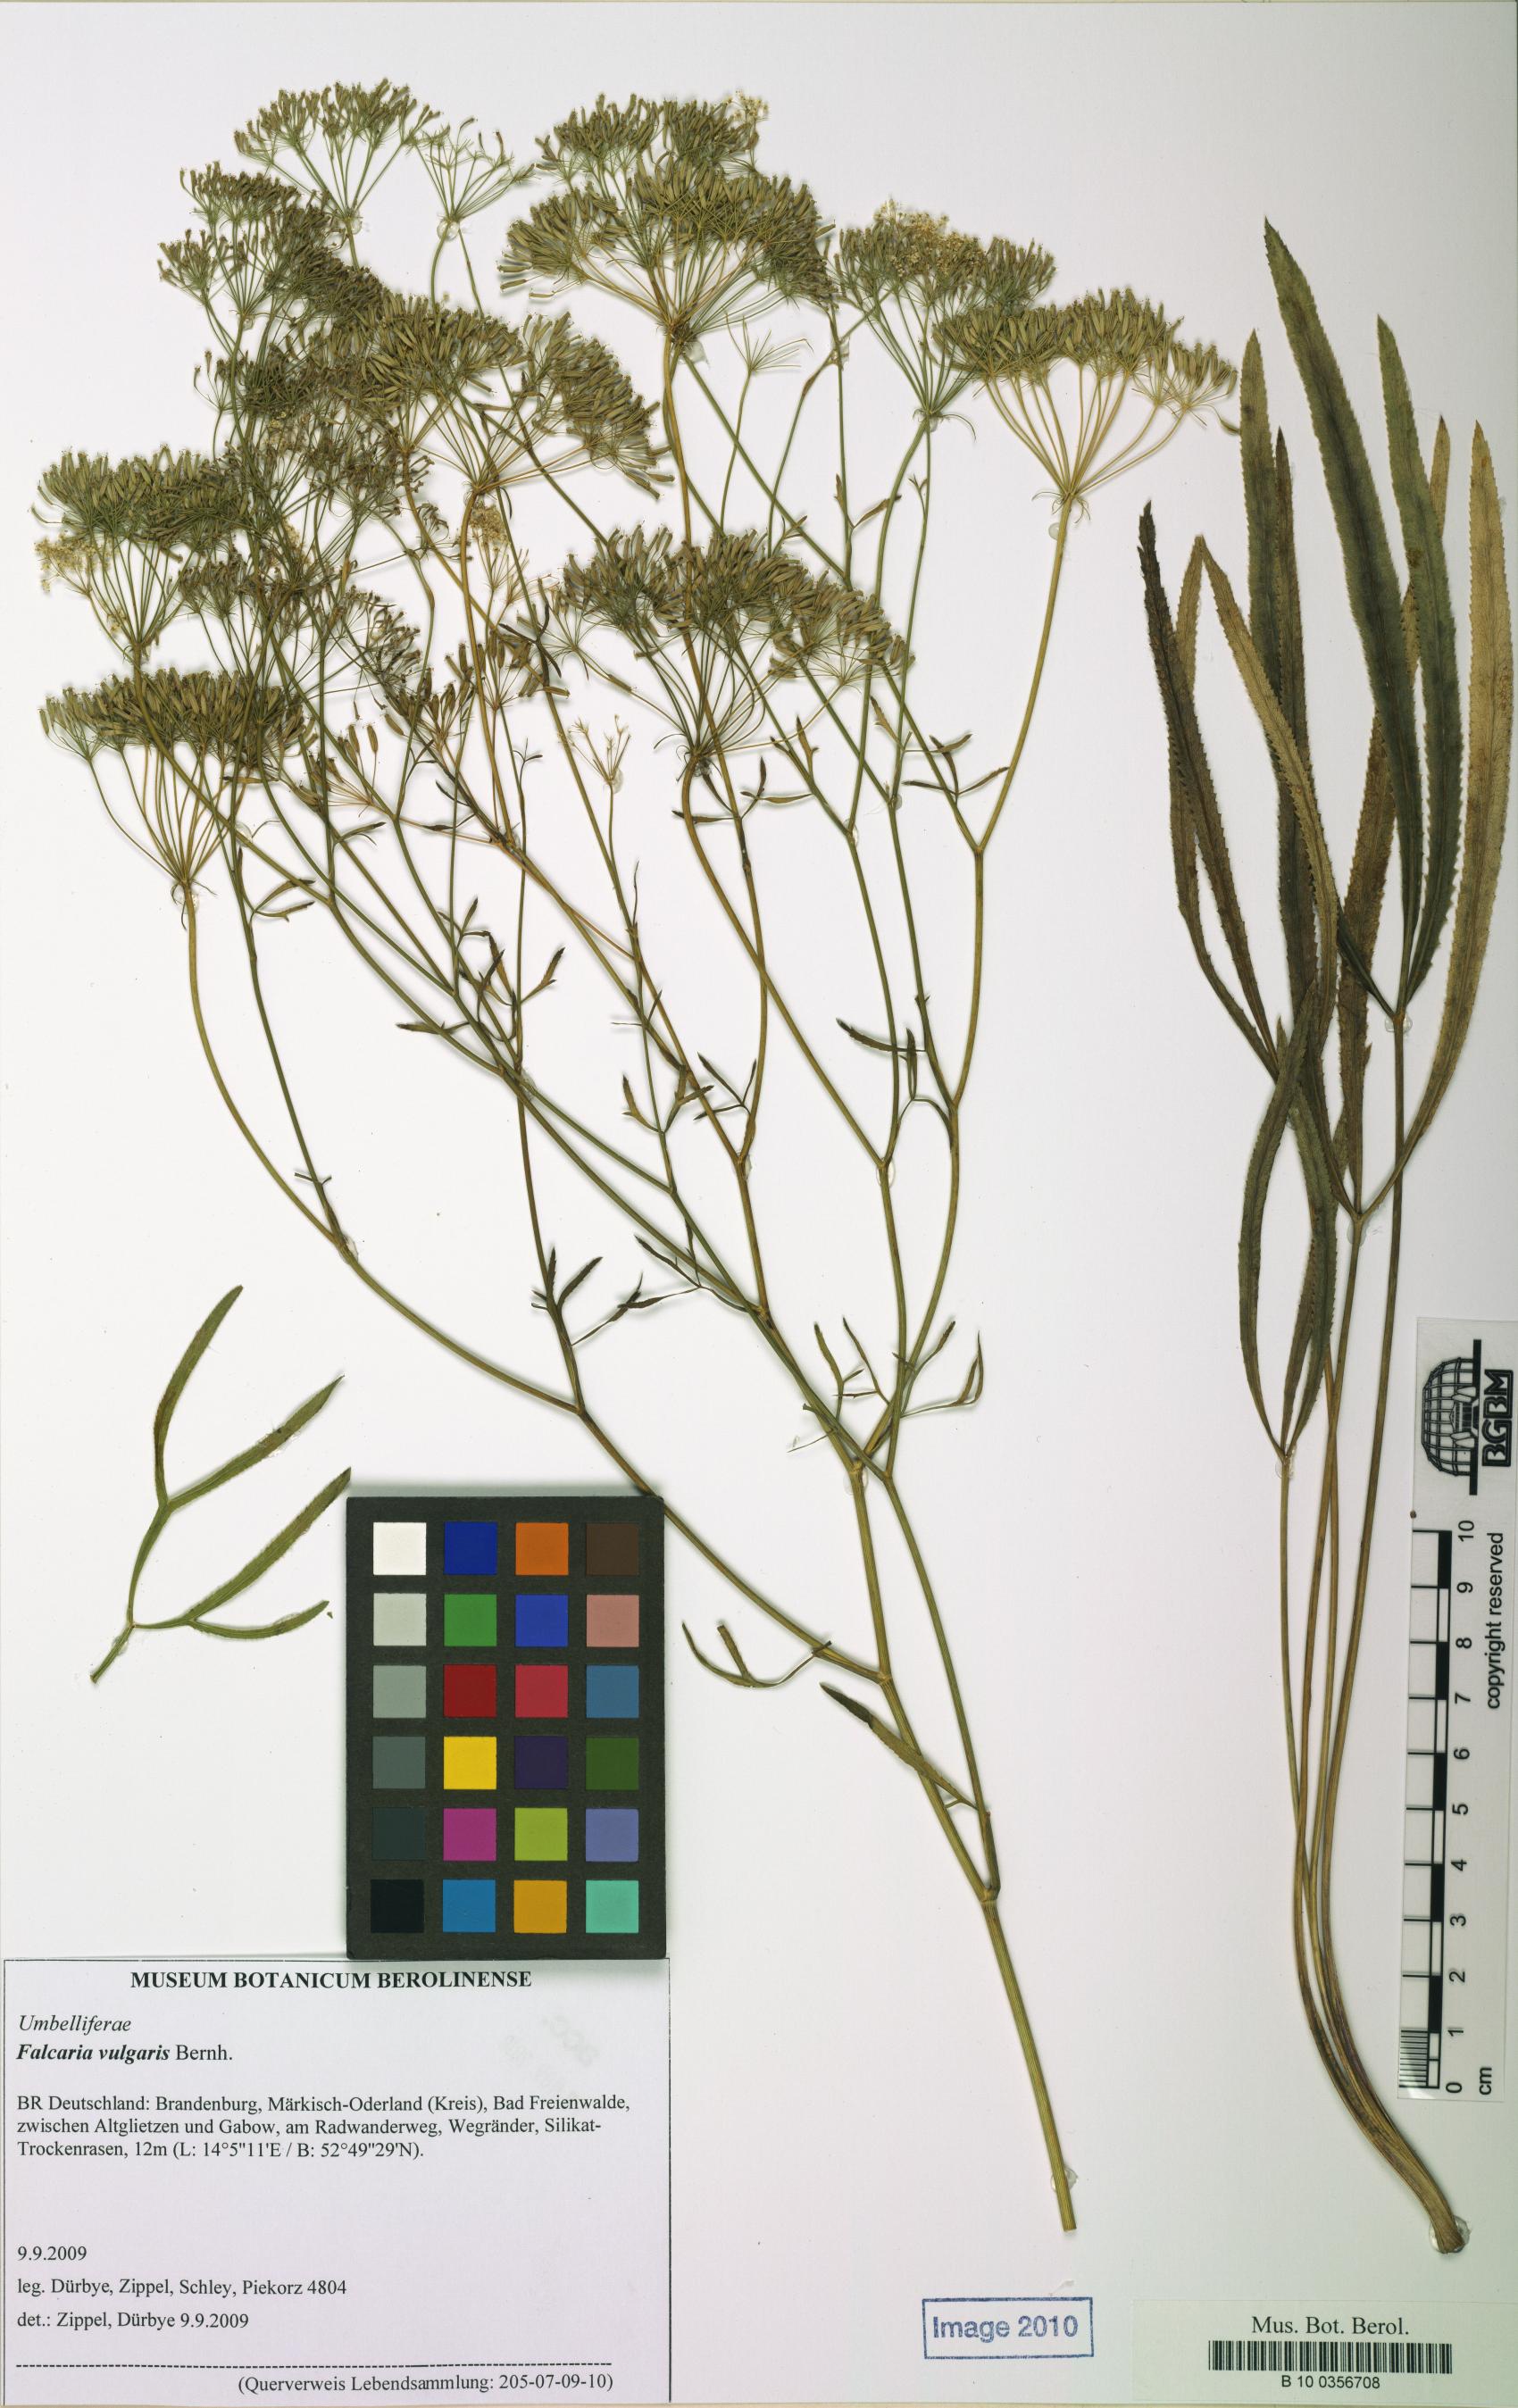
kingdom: Plantae
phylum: Tracheophyta
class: Magnoliopsida
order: Apiales
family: Apiaceae
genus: Falcaria
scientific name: Falcaria vulgaris
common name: Longleaf
